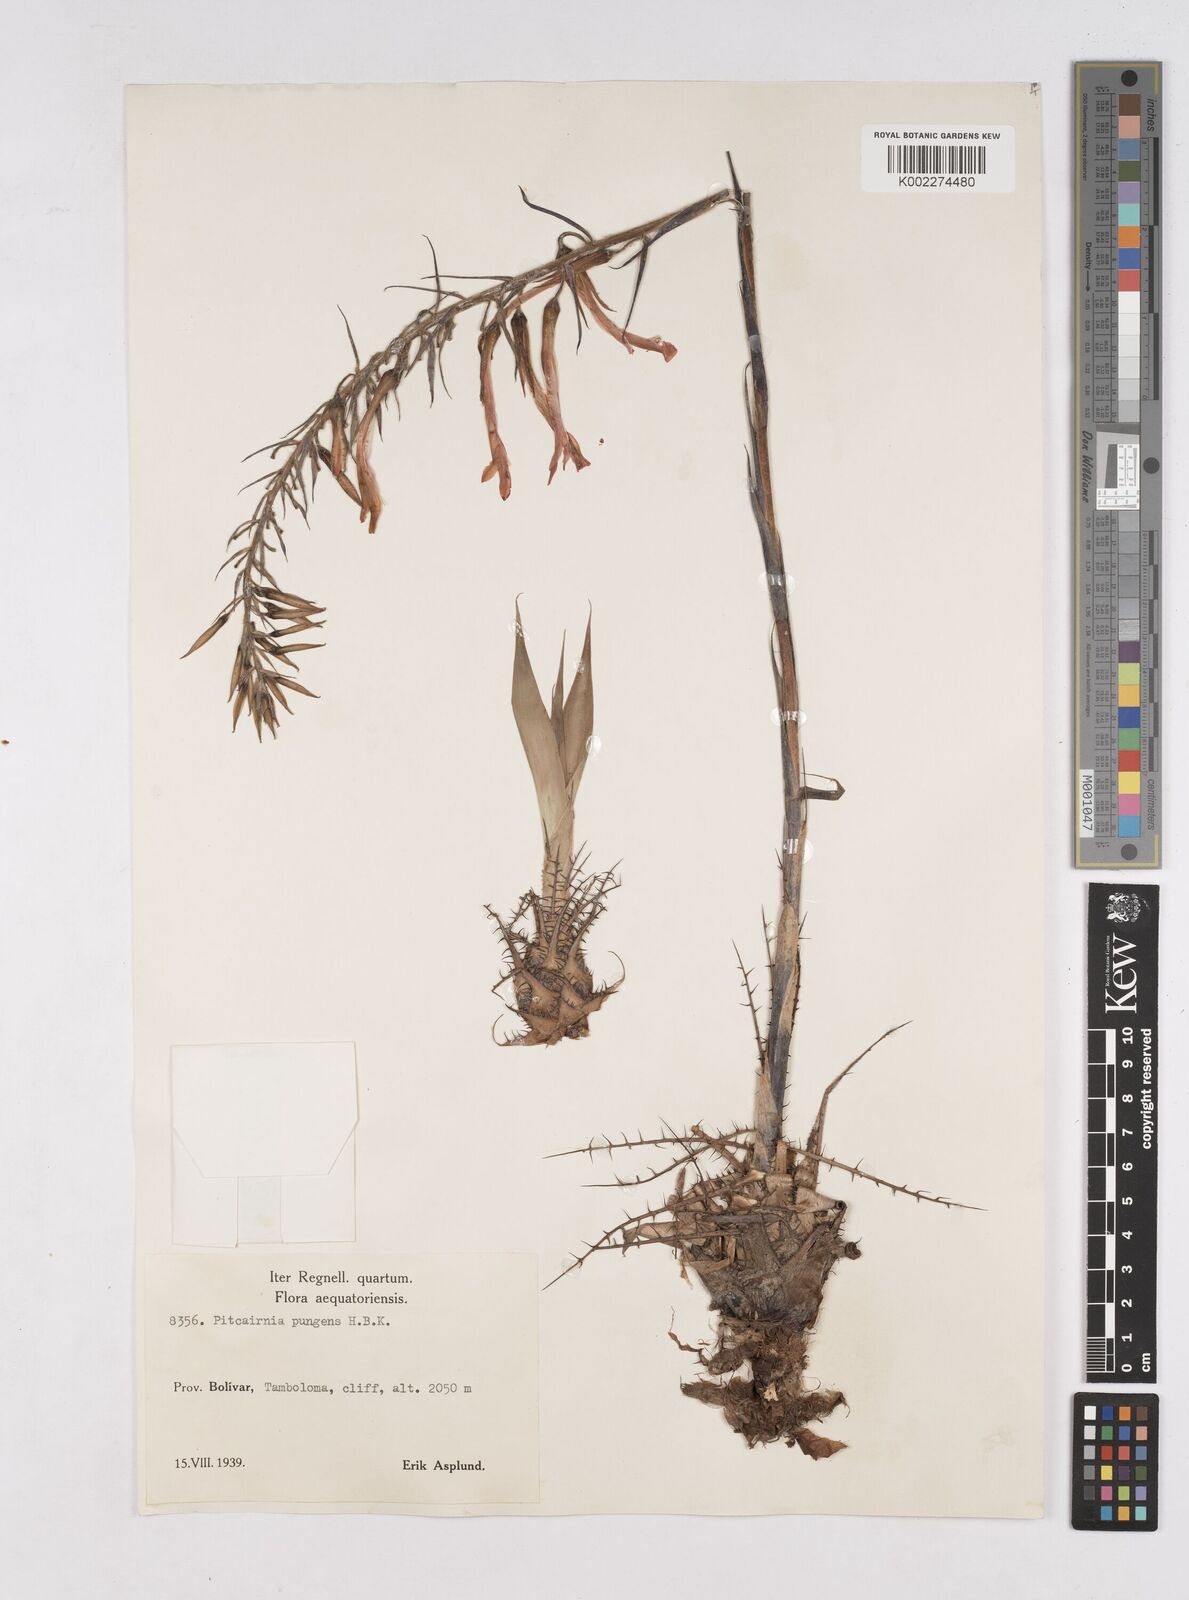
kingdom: Plantae
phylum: Tracheophyta
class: Liliopsida
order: Poales
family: Bromeliaceae
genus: Pitcairnia
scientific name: Pitcairnia pungens
